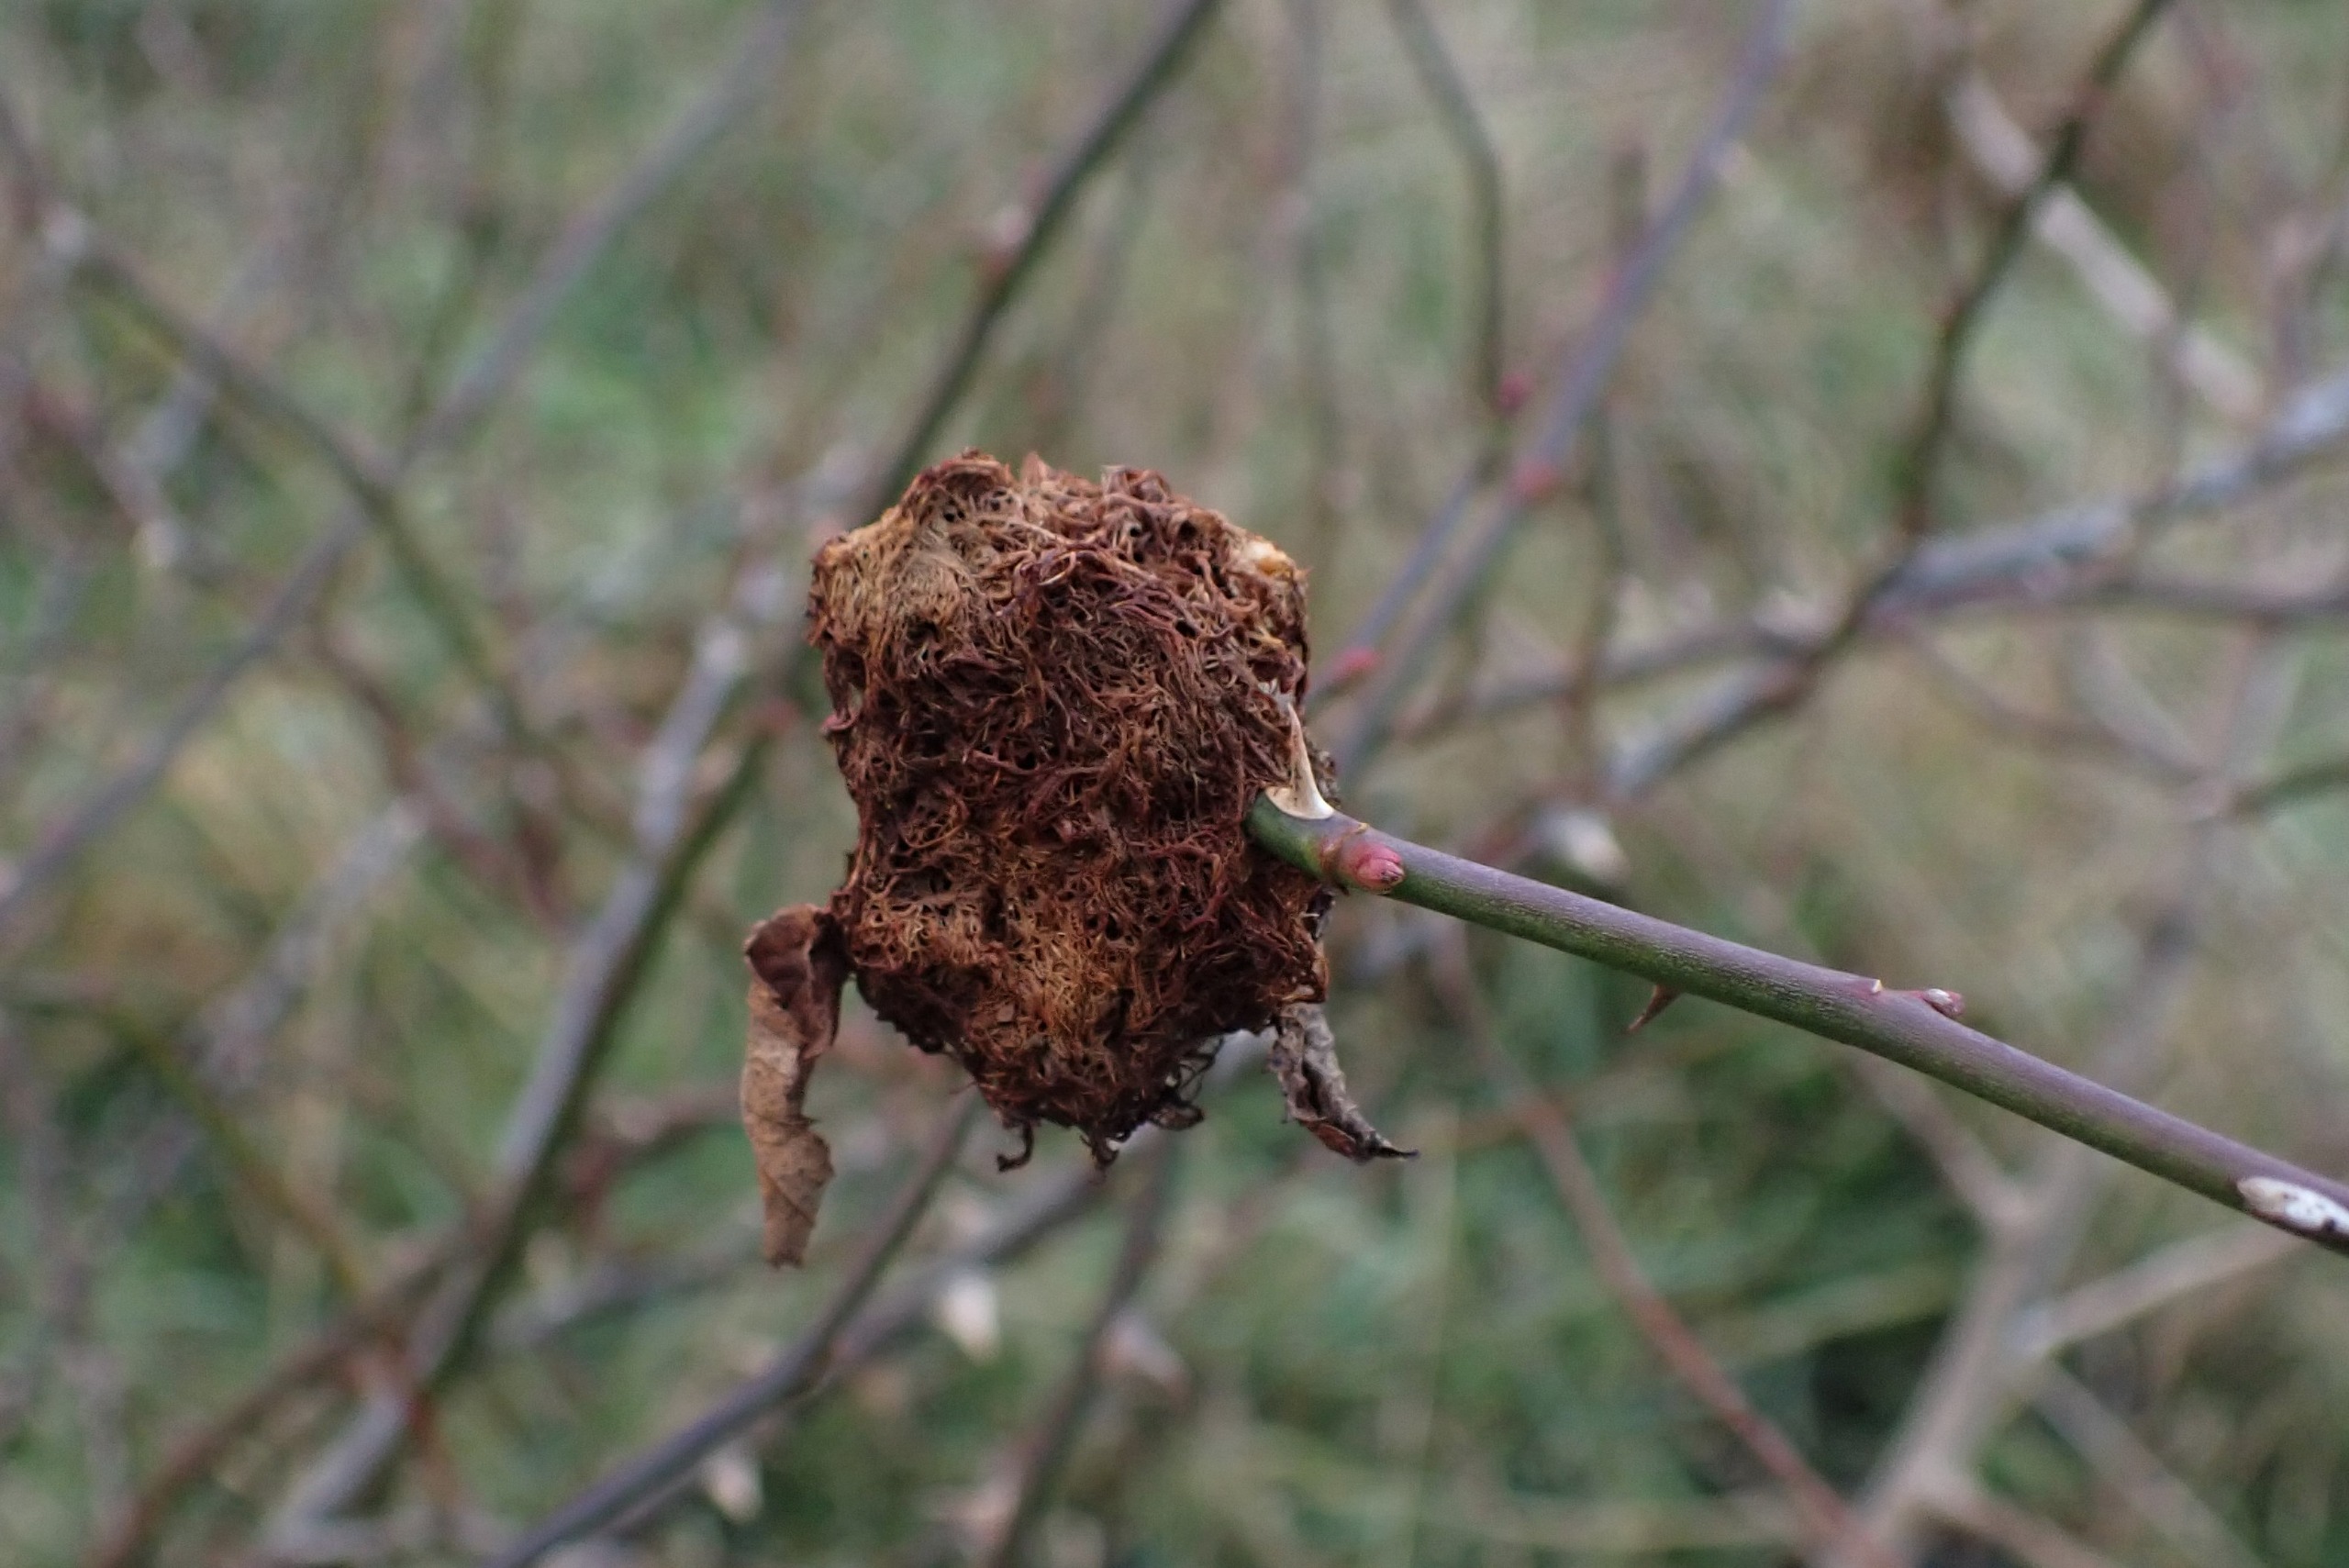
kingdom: Animalia
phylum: Arthropoda
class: Insecta
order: Hymenoptera
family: Cynipidae
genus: Diplolepis
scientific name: Diplolepis rosae
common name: Bedeguargalhveps
